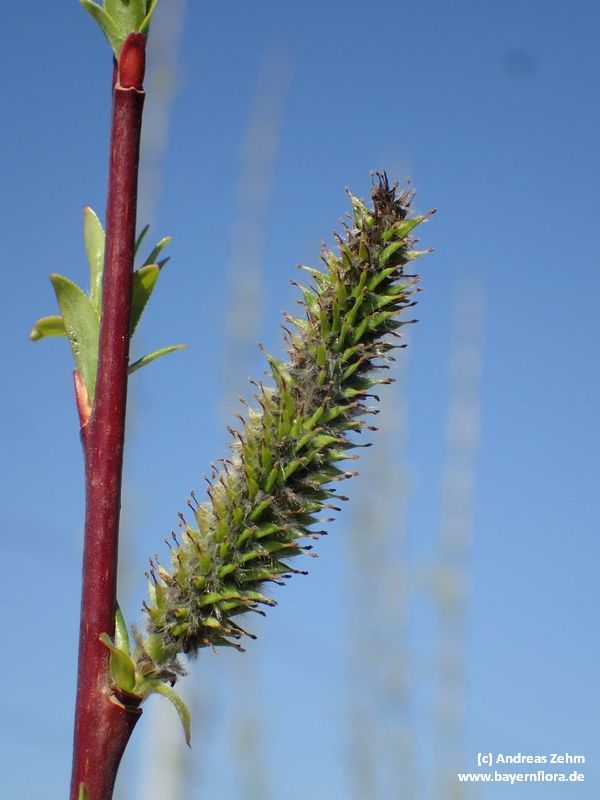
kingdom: Plantae
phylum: Tracheophyta
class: Magnoliopsida
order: Malpighiales
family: Salicaceae
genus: Salix
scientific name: Salix daphnoides
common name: European violet-willow
